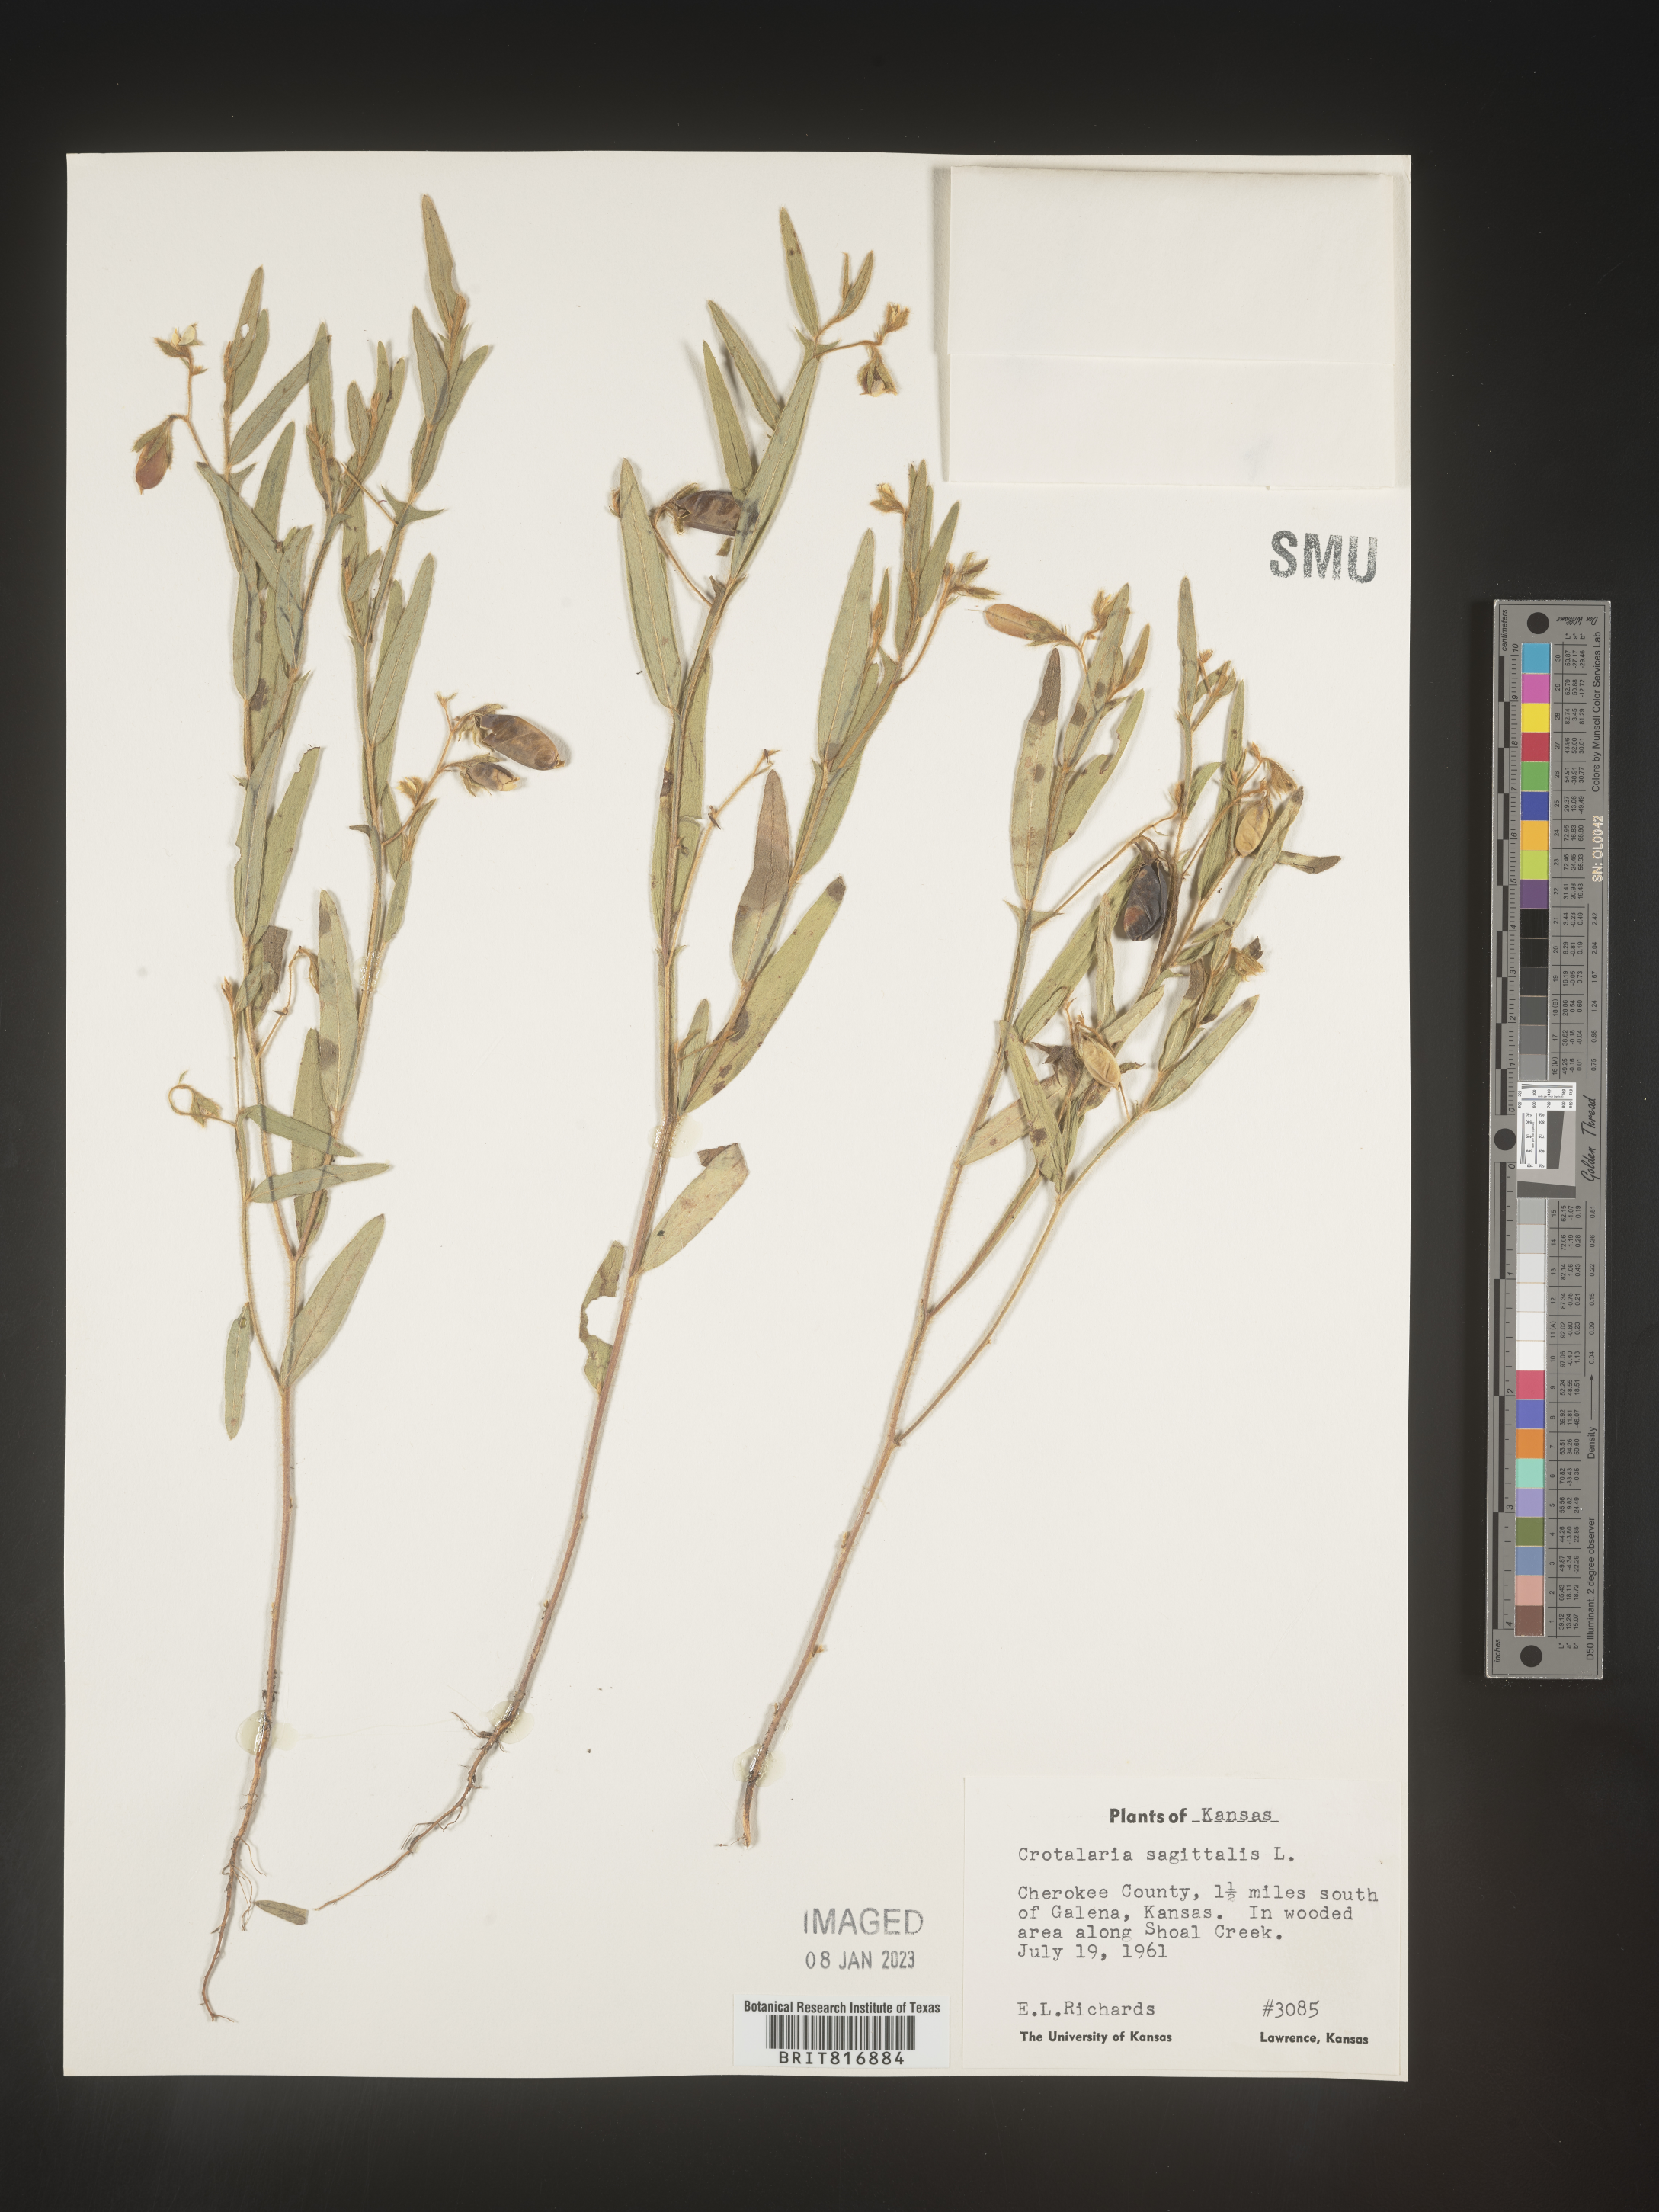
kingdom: Plantae
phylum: Tracheophyta
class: Magnoliopsida
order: Fabales
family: Fabaceae
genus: Crotalaria
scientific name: Crotalaria sagittalis
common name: Arrowhead rattlebox
